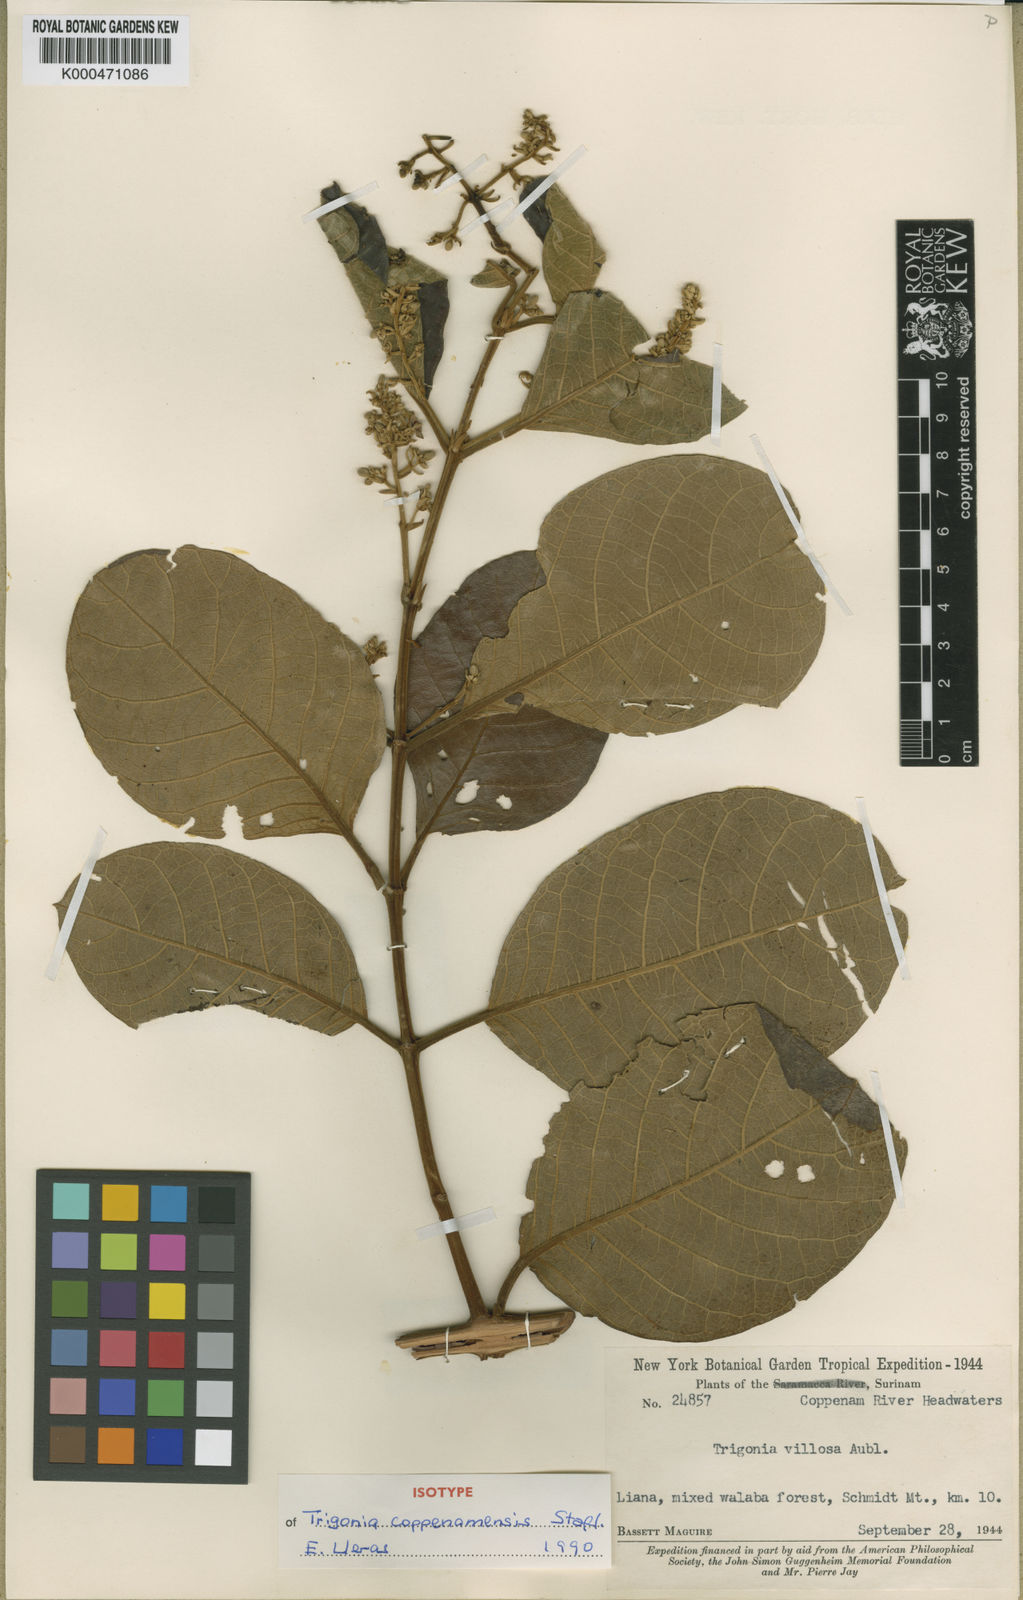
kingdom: Plantae
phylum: Tracheophyta
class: Magnoliopsida
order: Malpighiales
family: Trigoniaceae
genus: Trigonia
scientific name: Trigonia coppenamensis
